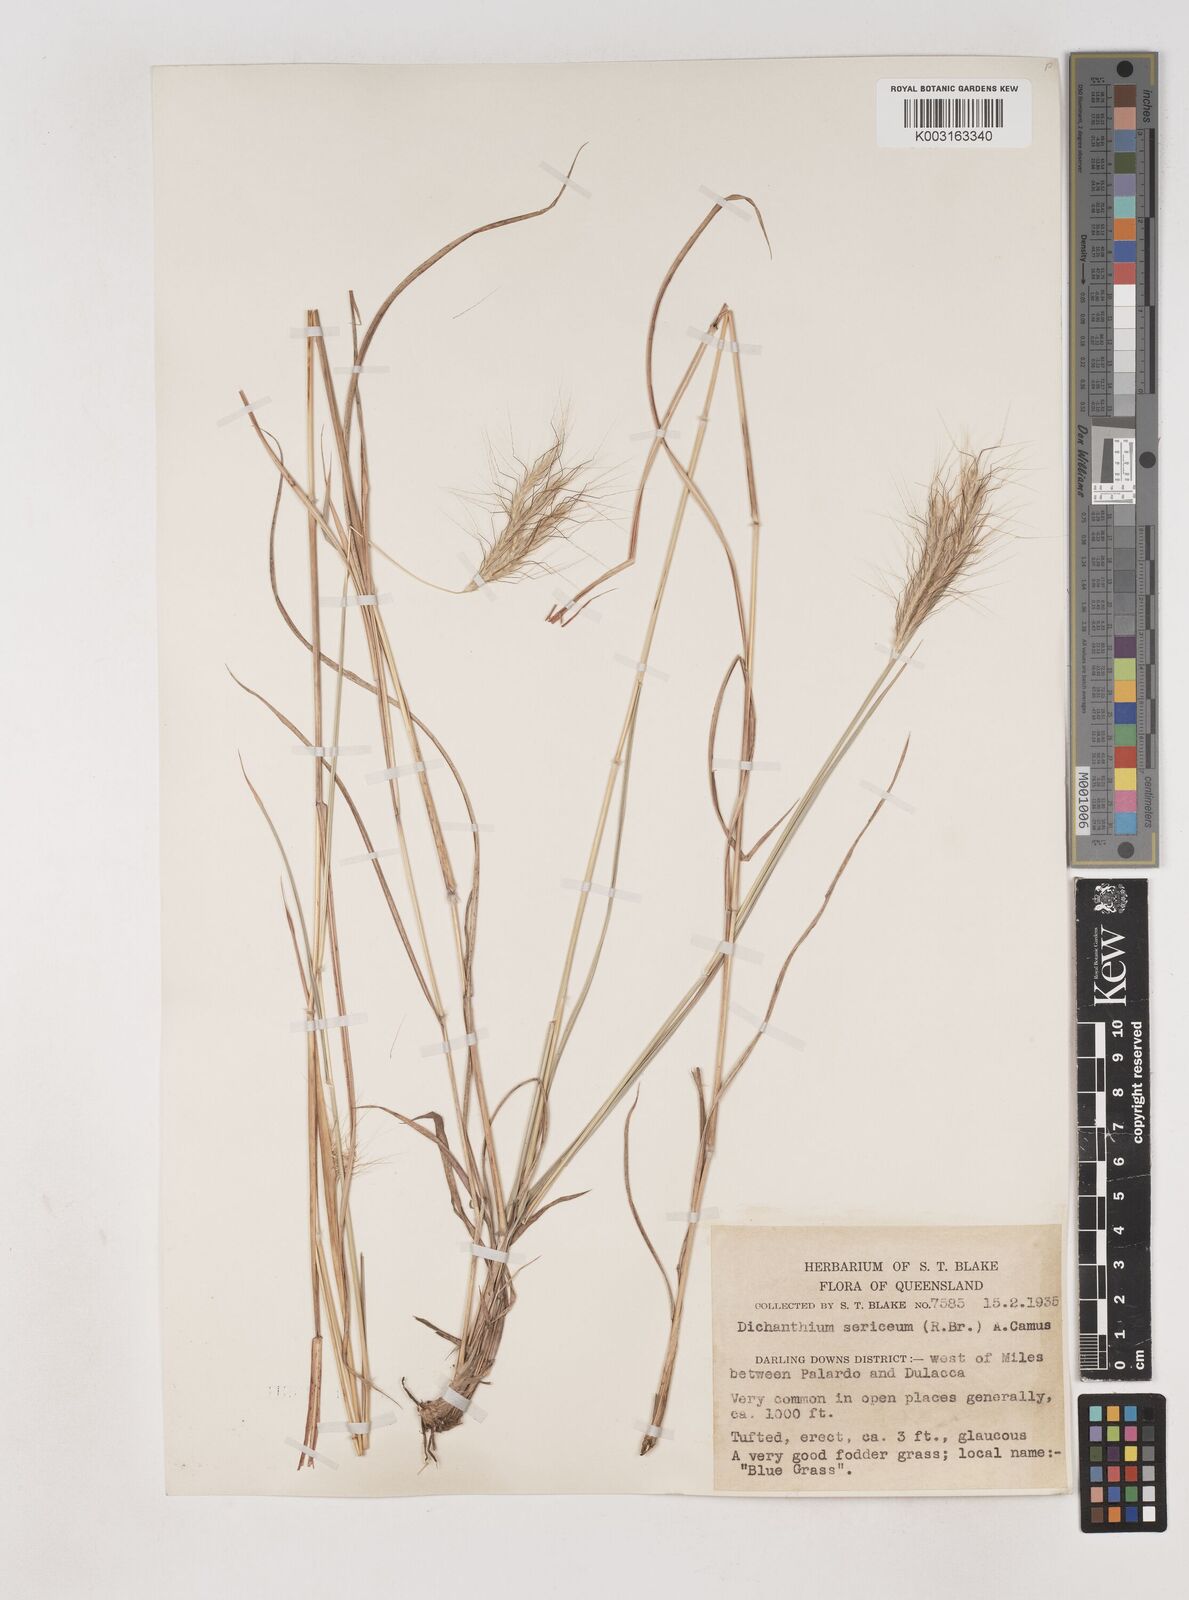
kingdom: Plantae
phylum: Tracheophyta
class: Liliopsida
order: Poales
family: Poaceae
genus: Dichanthium
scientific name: Dichanthium sericeum
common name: Silky bluestem
